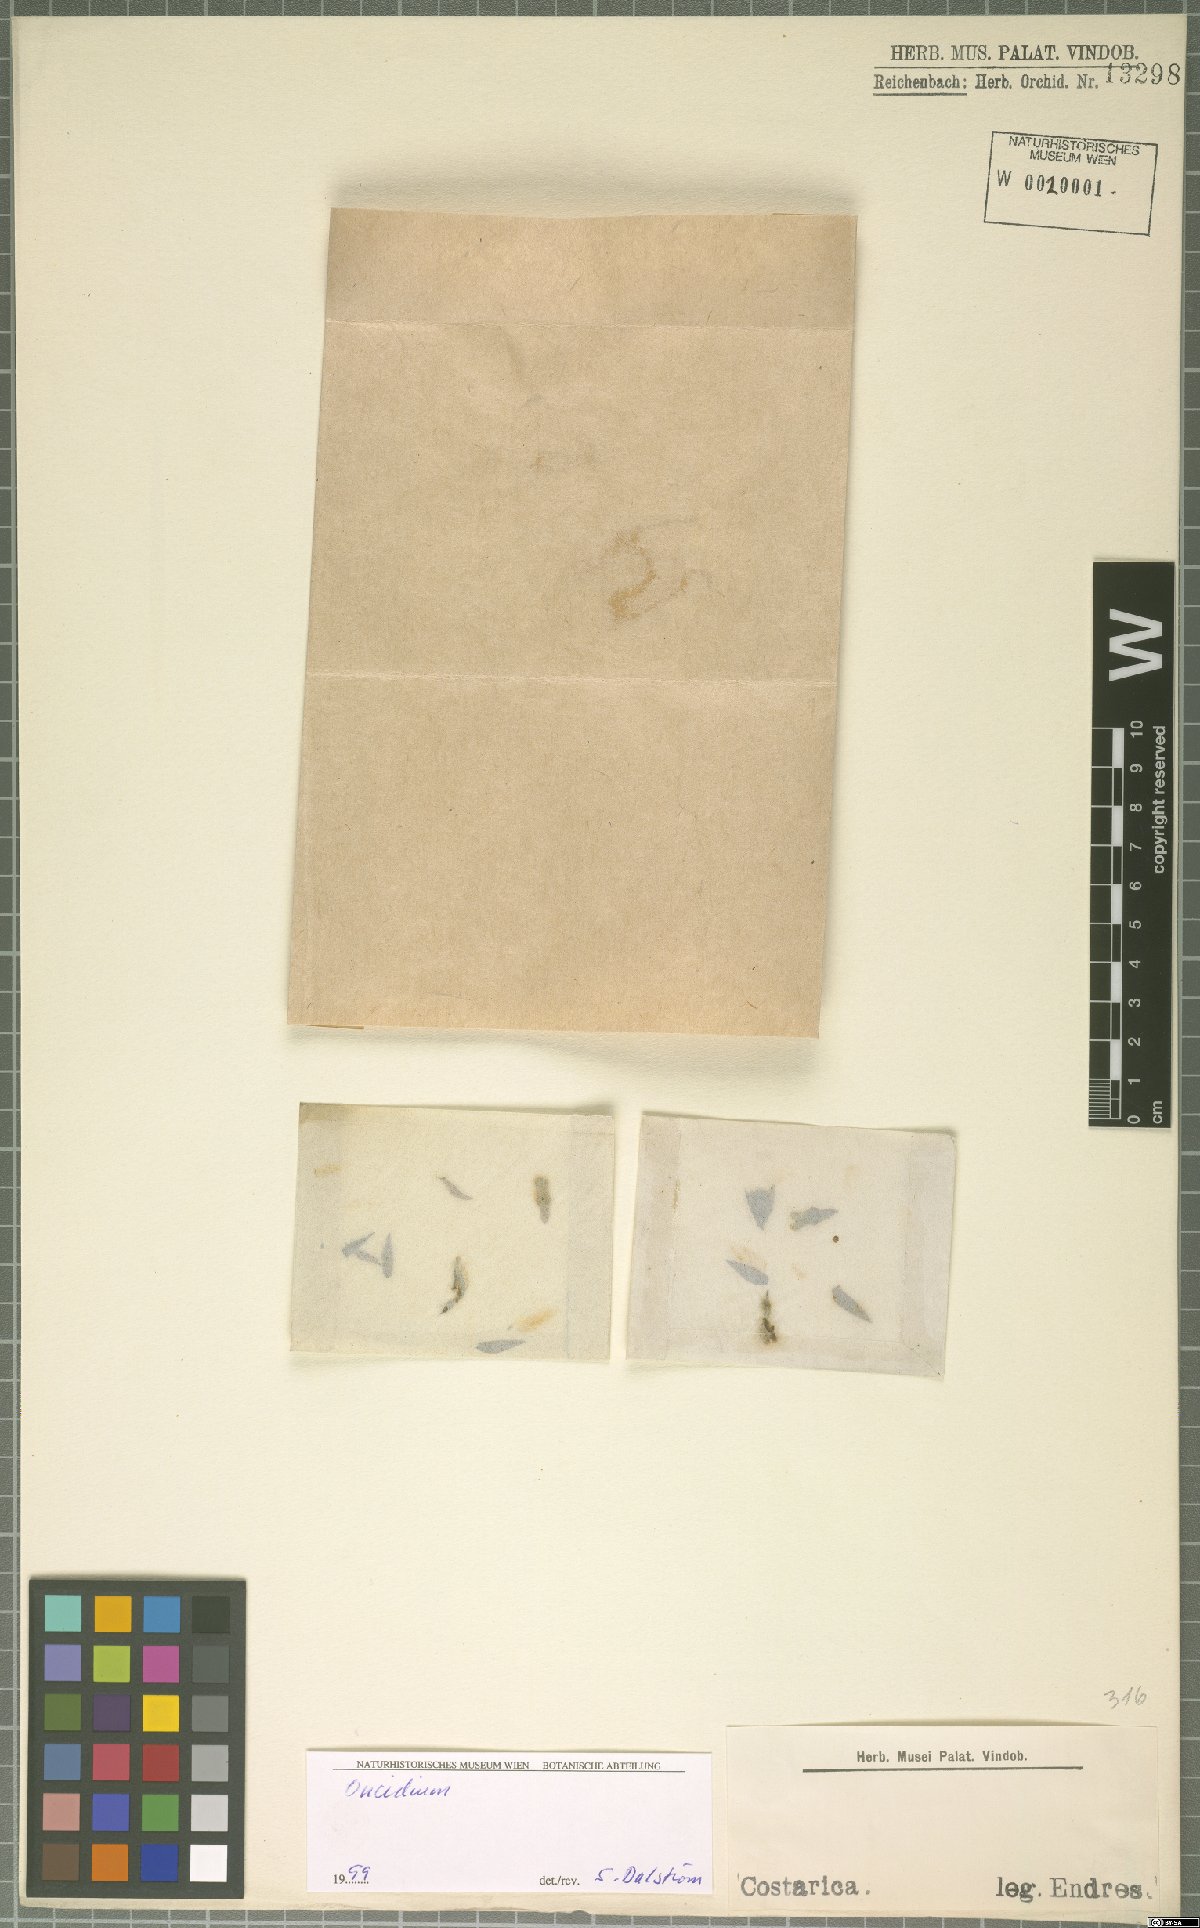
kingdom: Plantae
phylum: Tracheophyta
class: Liliopsida
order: Asparagales
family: Orchidaceae
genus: Oncidium
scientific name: Oncidium
